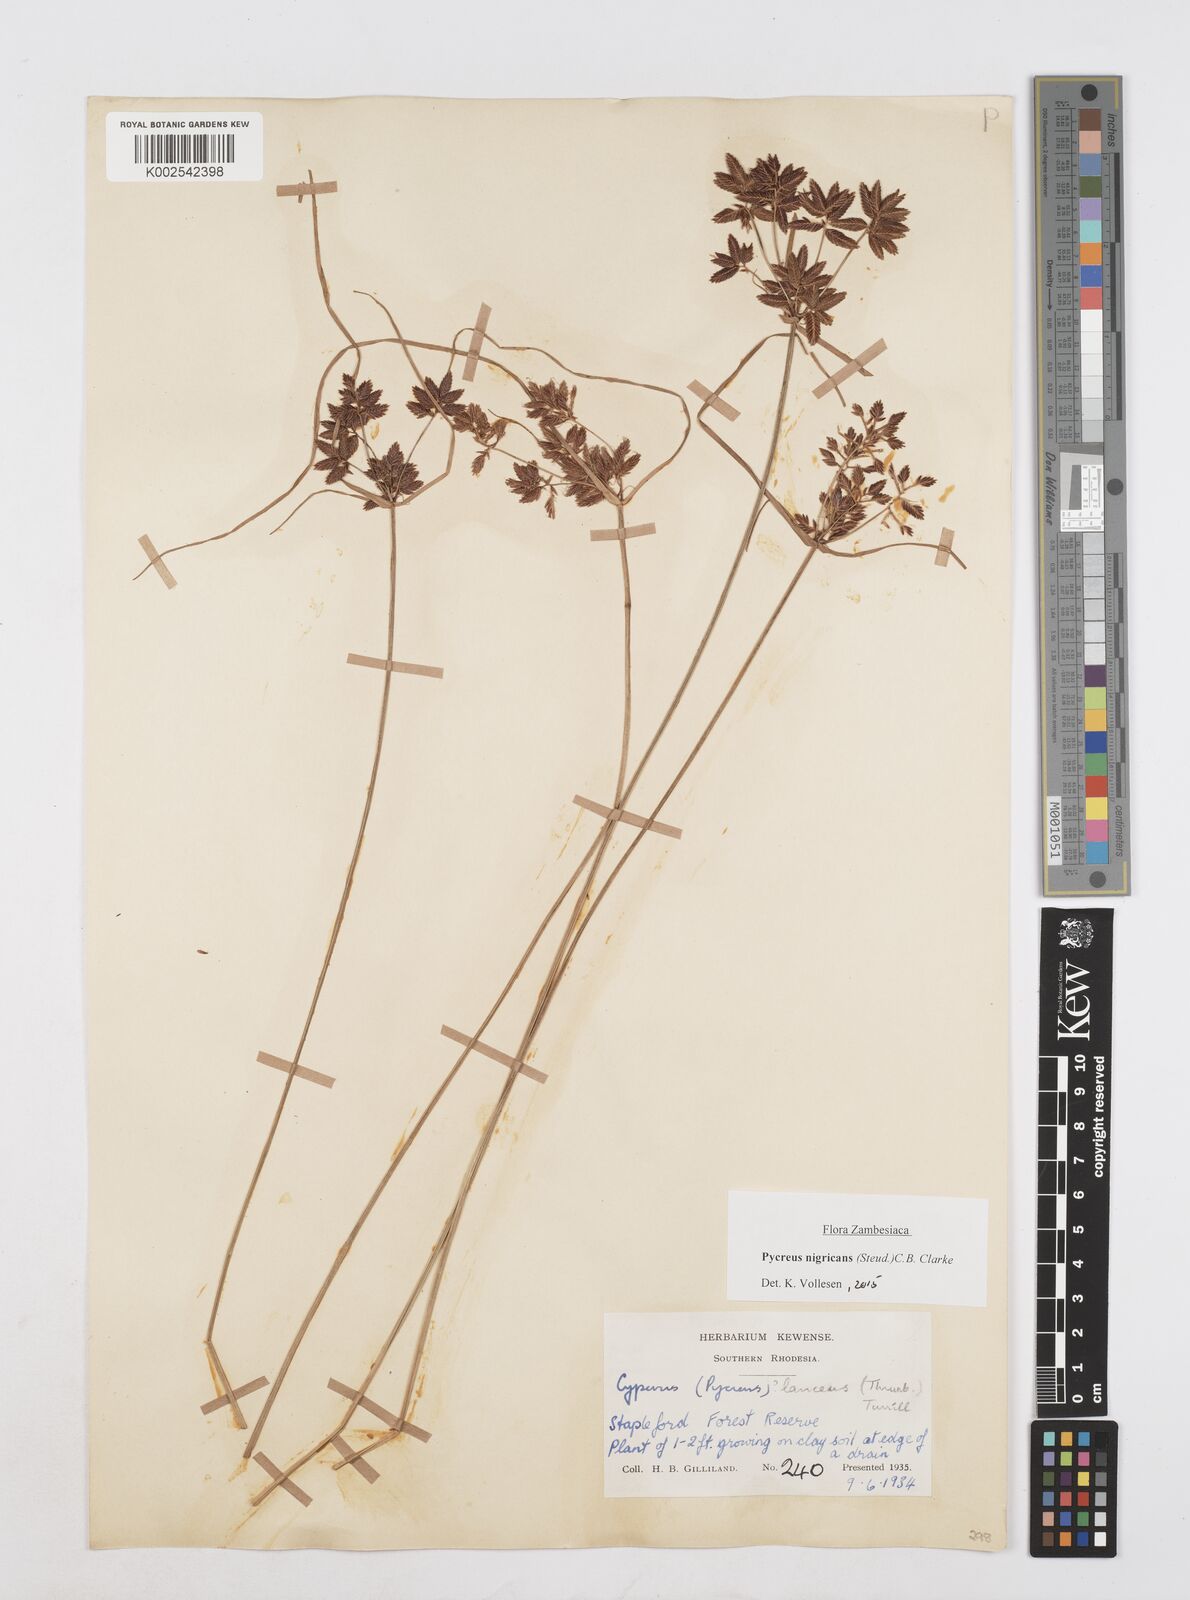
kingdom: Plantae
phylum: Tracheophyta
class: Liliopsida
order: Poales
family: Cyperaceae
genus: Cyperus
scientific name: Cyperus nigricans
